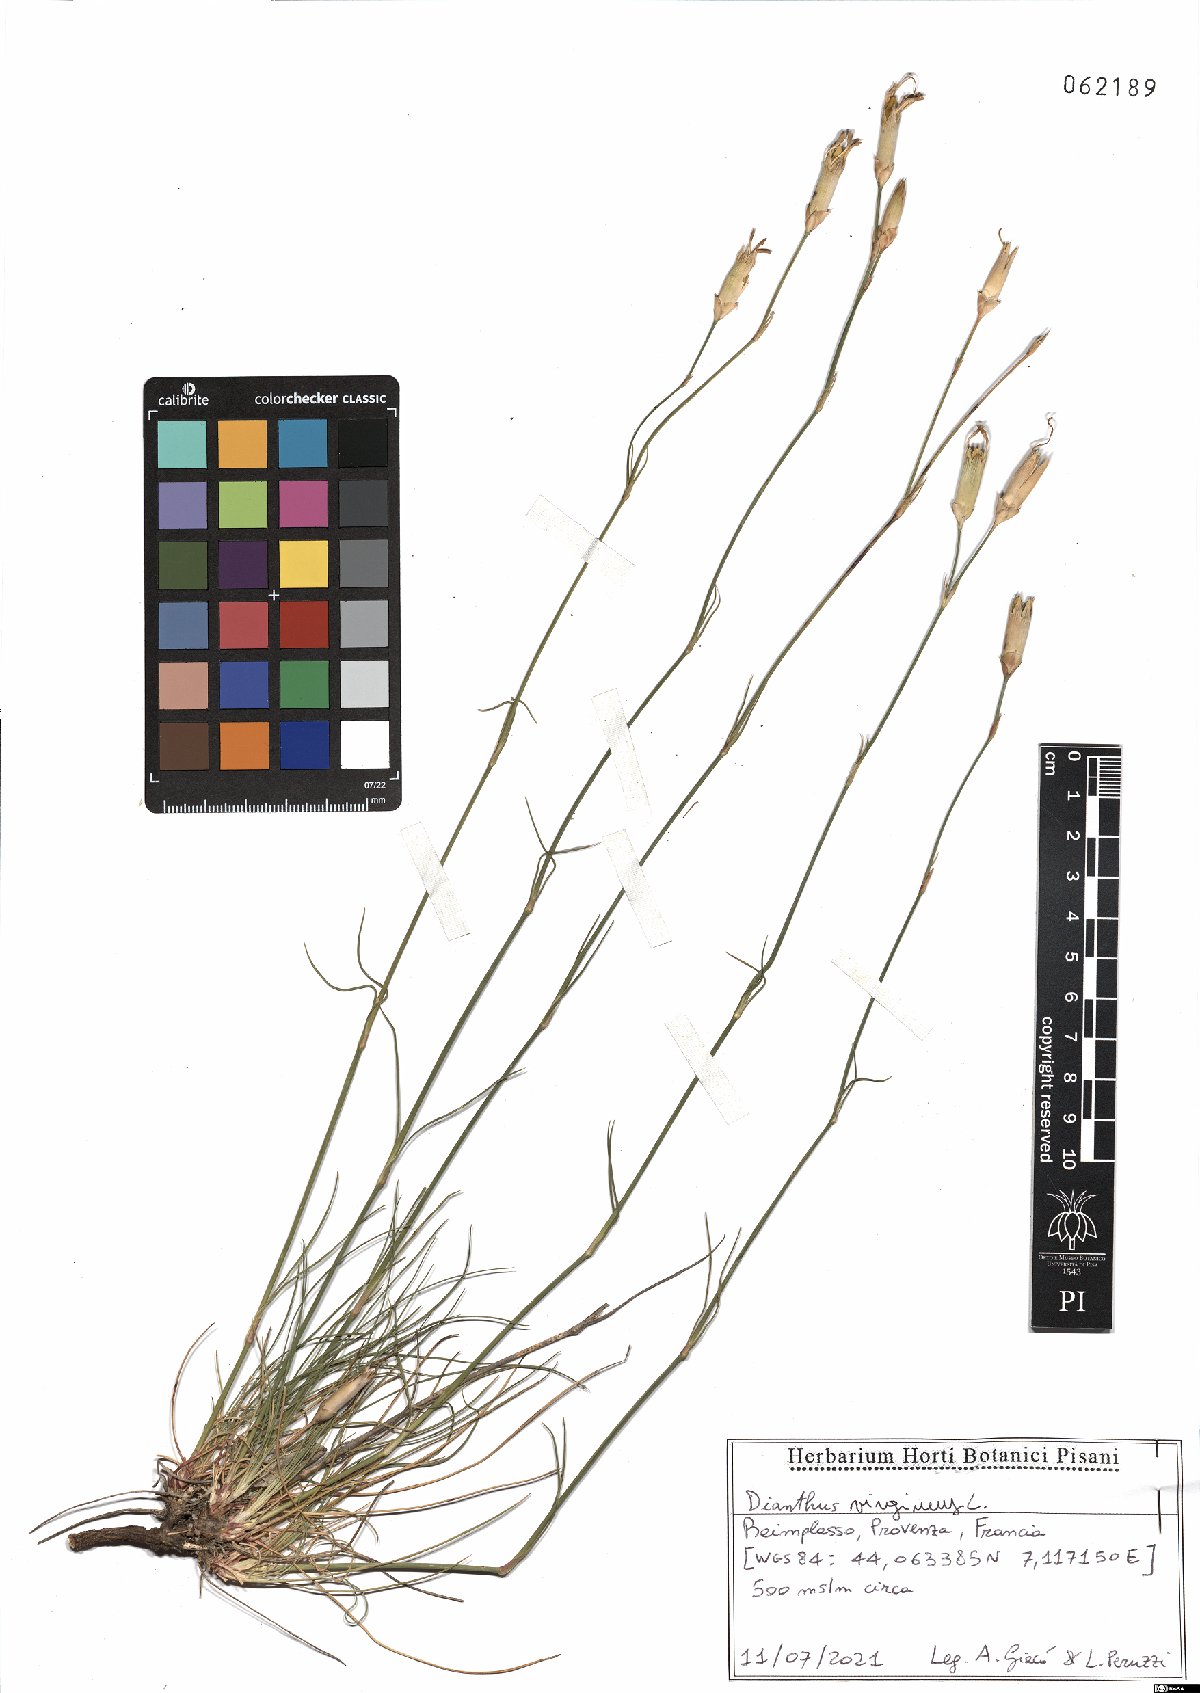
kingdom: Plantae
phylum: Tracheophyta
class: Magnoliopsida
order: Caryophyllales
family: Caryophyllaceae
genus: Dianthus
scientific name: Dianthus virgineus
